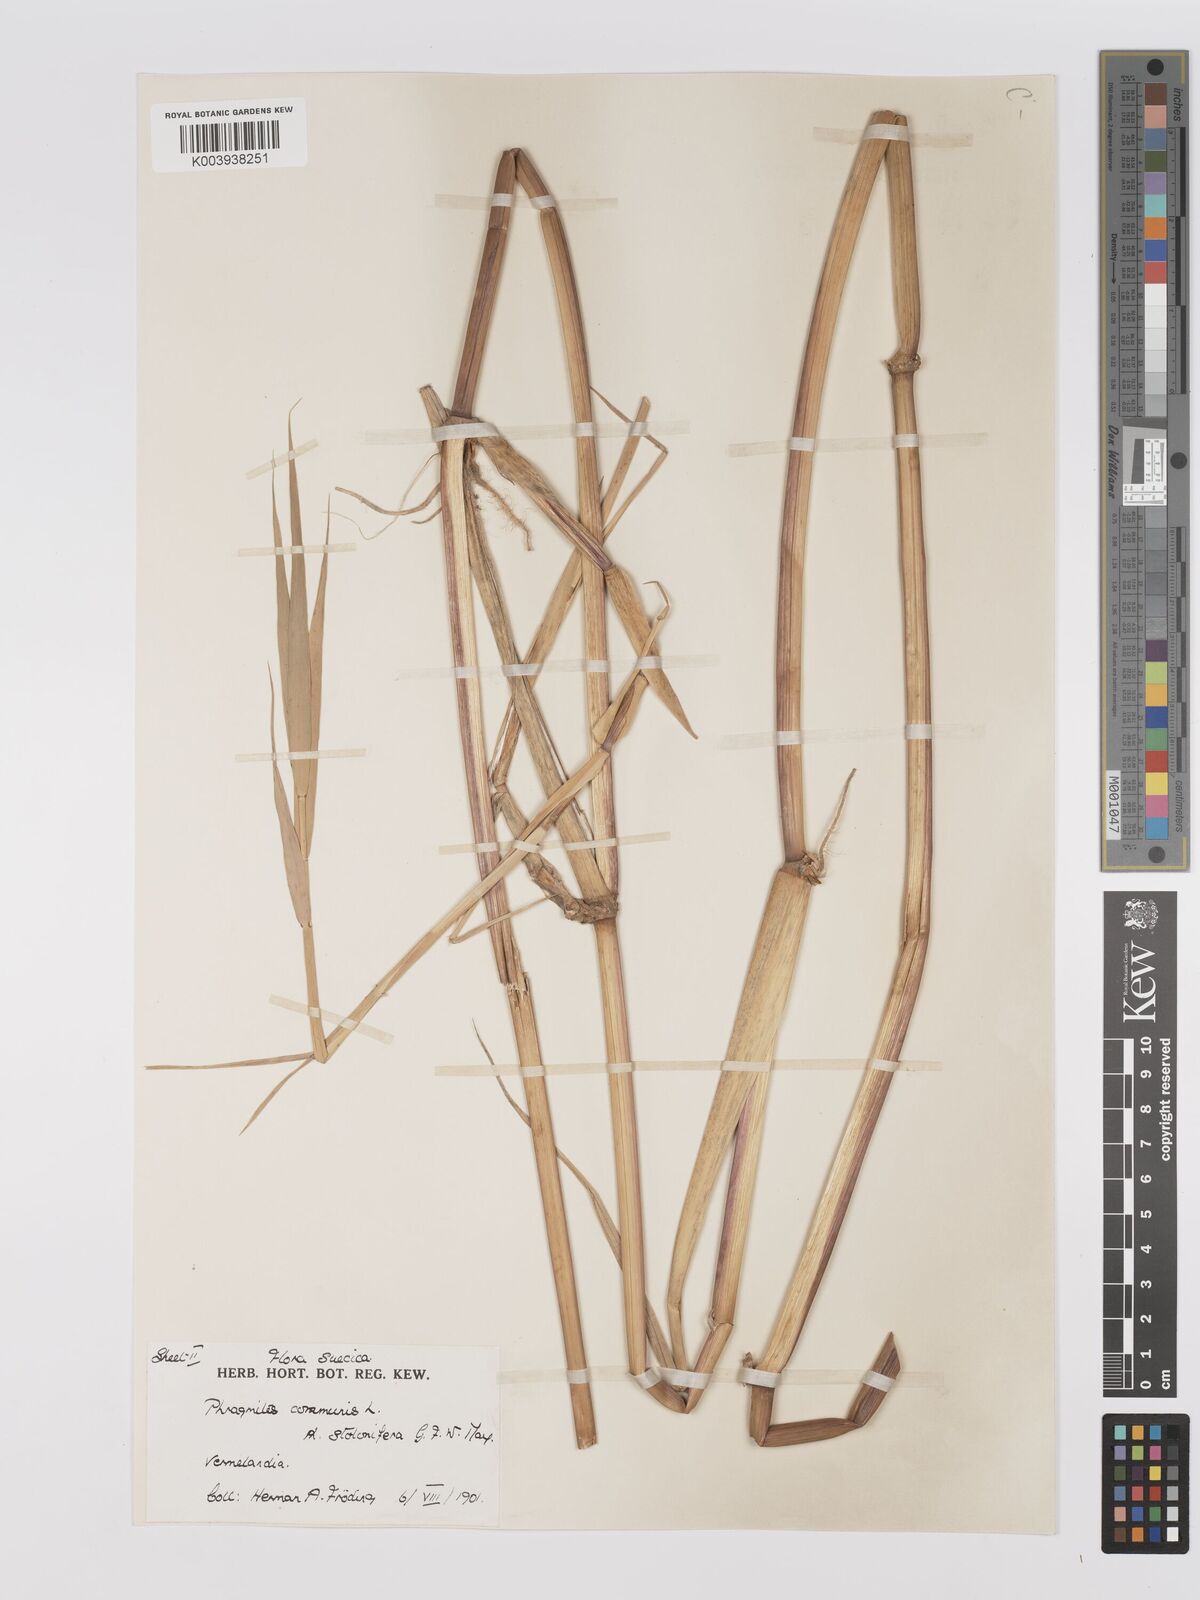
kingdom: Plantae
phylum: Tracheophyta
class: Liliopsida
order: Poales
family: Poaceae
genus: Phragmites
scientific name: Phragmites australis
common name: Common reed
